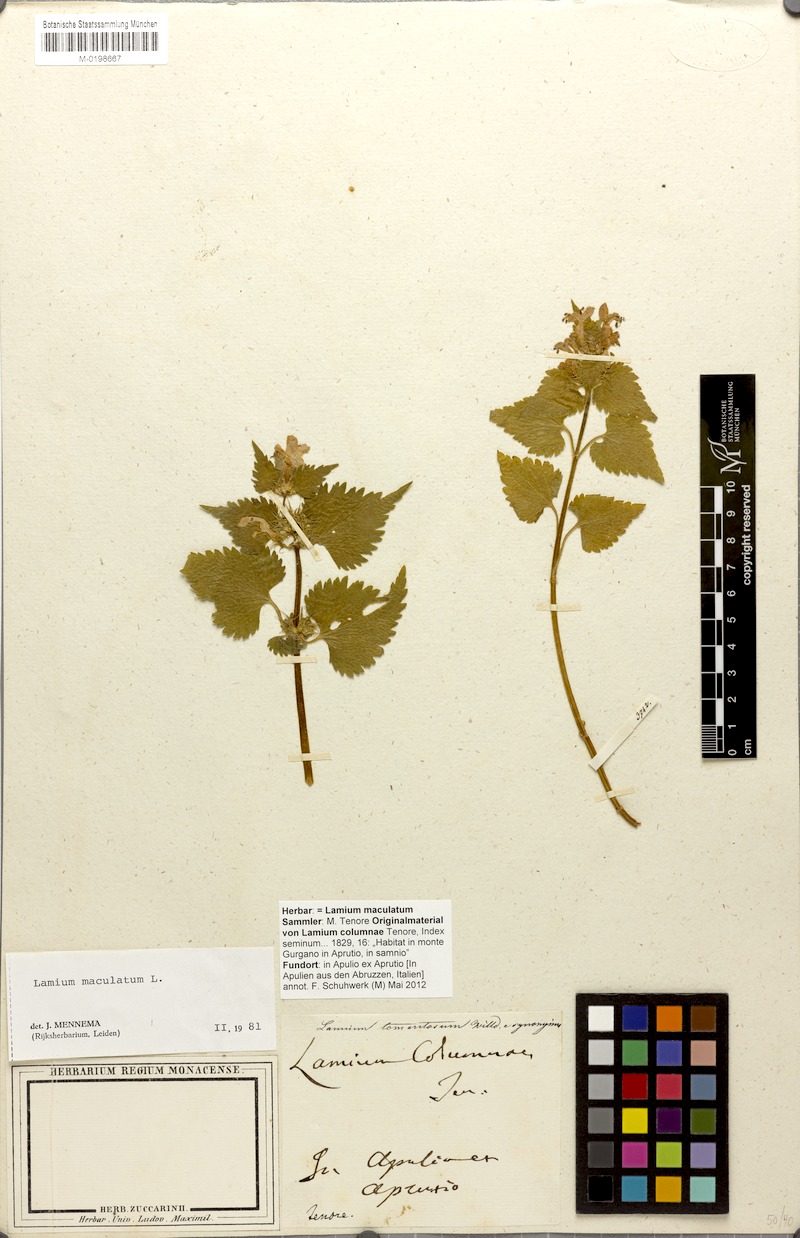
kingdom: Plantae
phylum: Tracheophyta
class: Magnoliopsida
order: Lamiales
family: Lamiaceae
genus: Lamium
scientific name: Lamium maculatum
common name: Spotted dead-nettle
